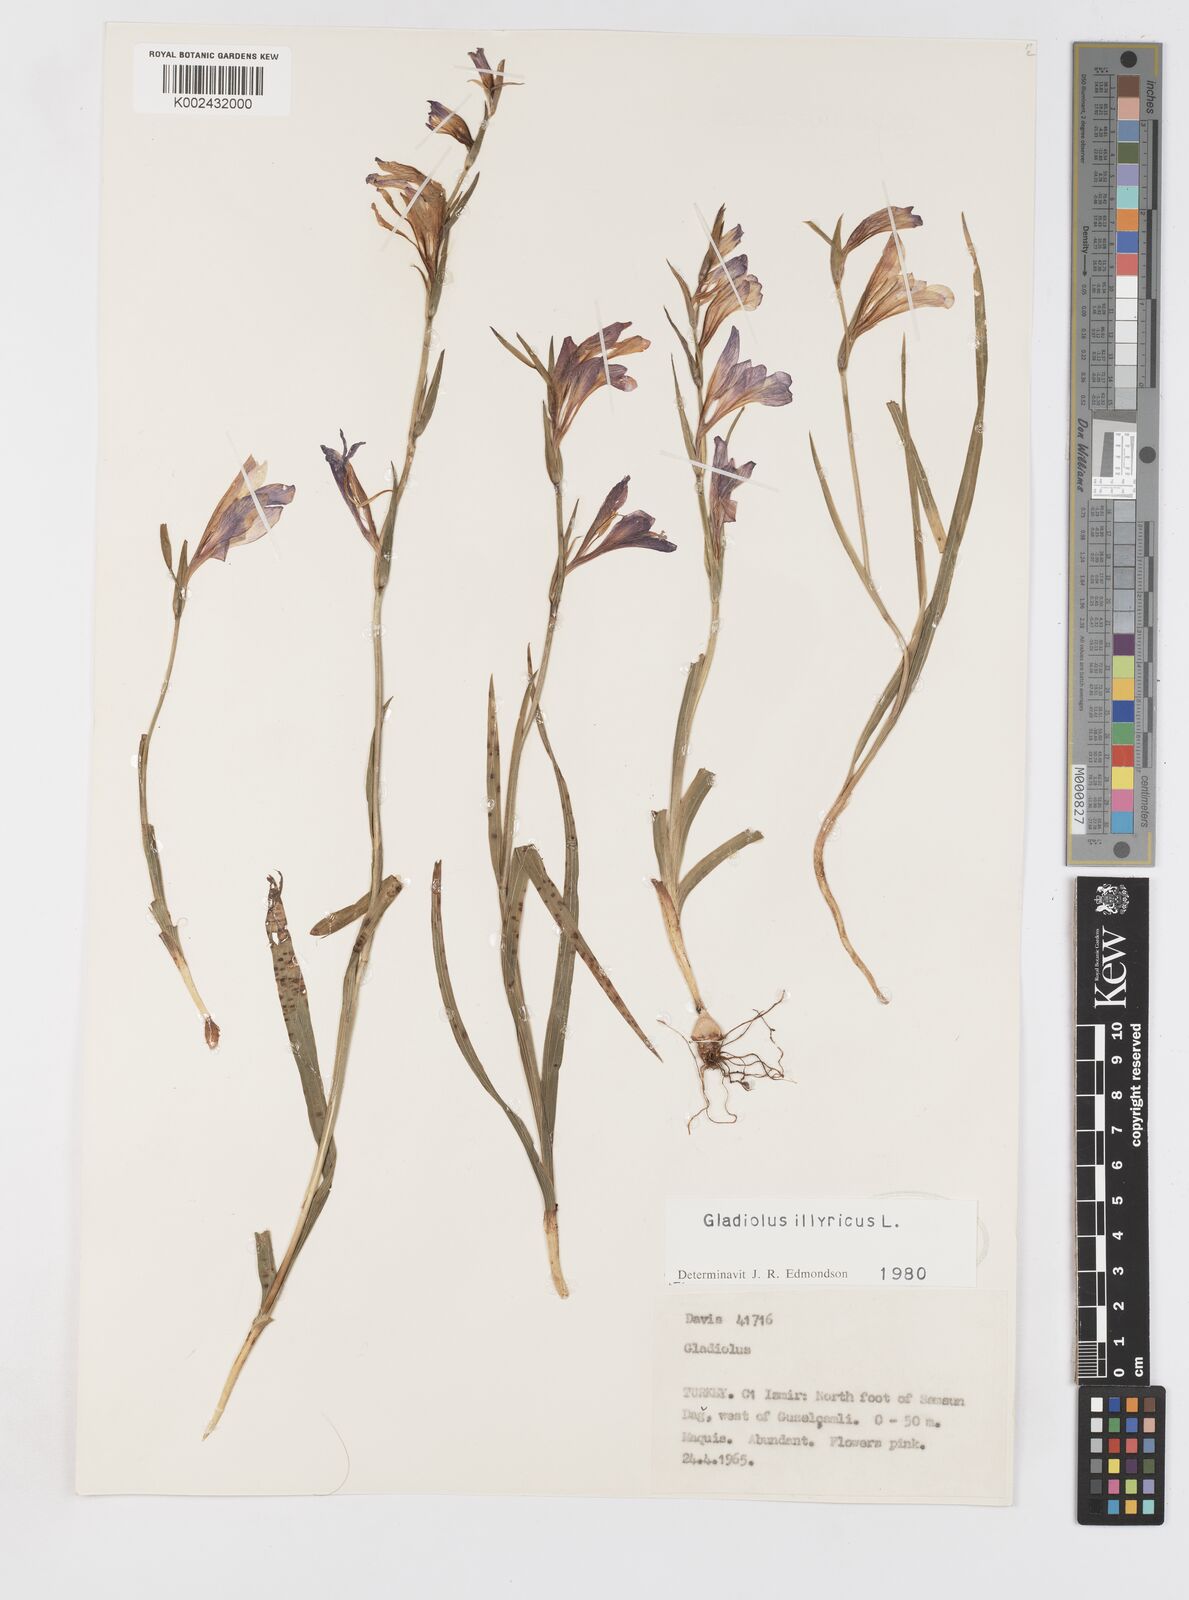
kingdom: Plantae
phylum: Tracheophyta
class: Liliopsida
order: Asparagales
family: Iridaceae
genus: Gladiolus
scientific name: Gladiolus illyricus
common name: Wild gladiolus
